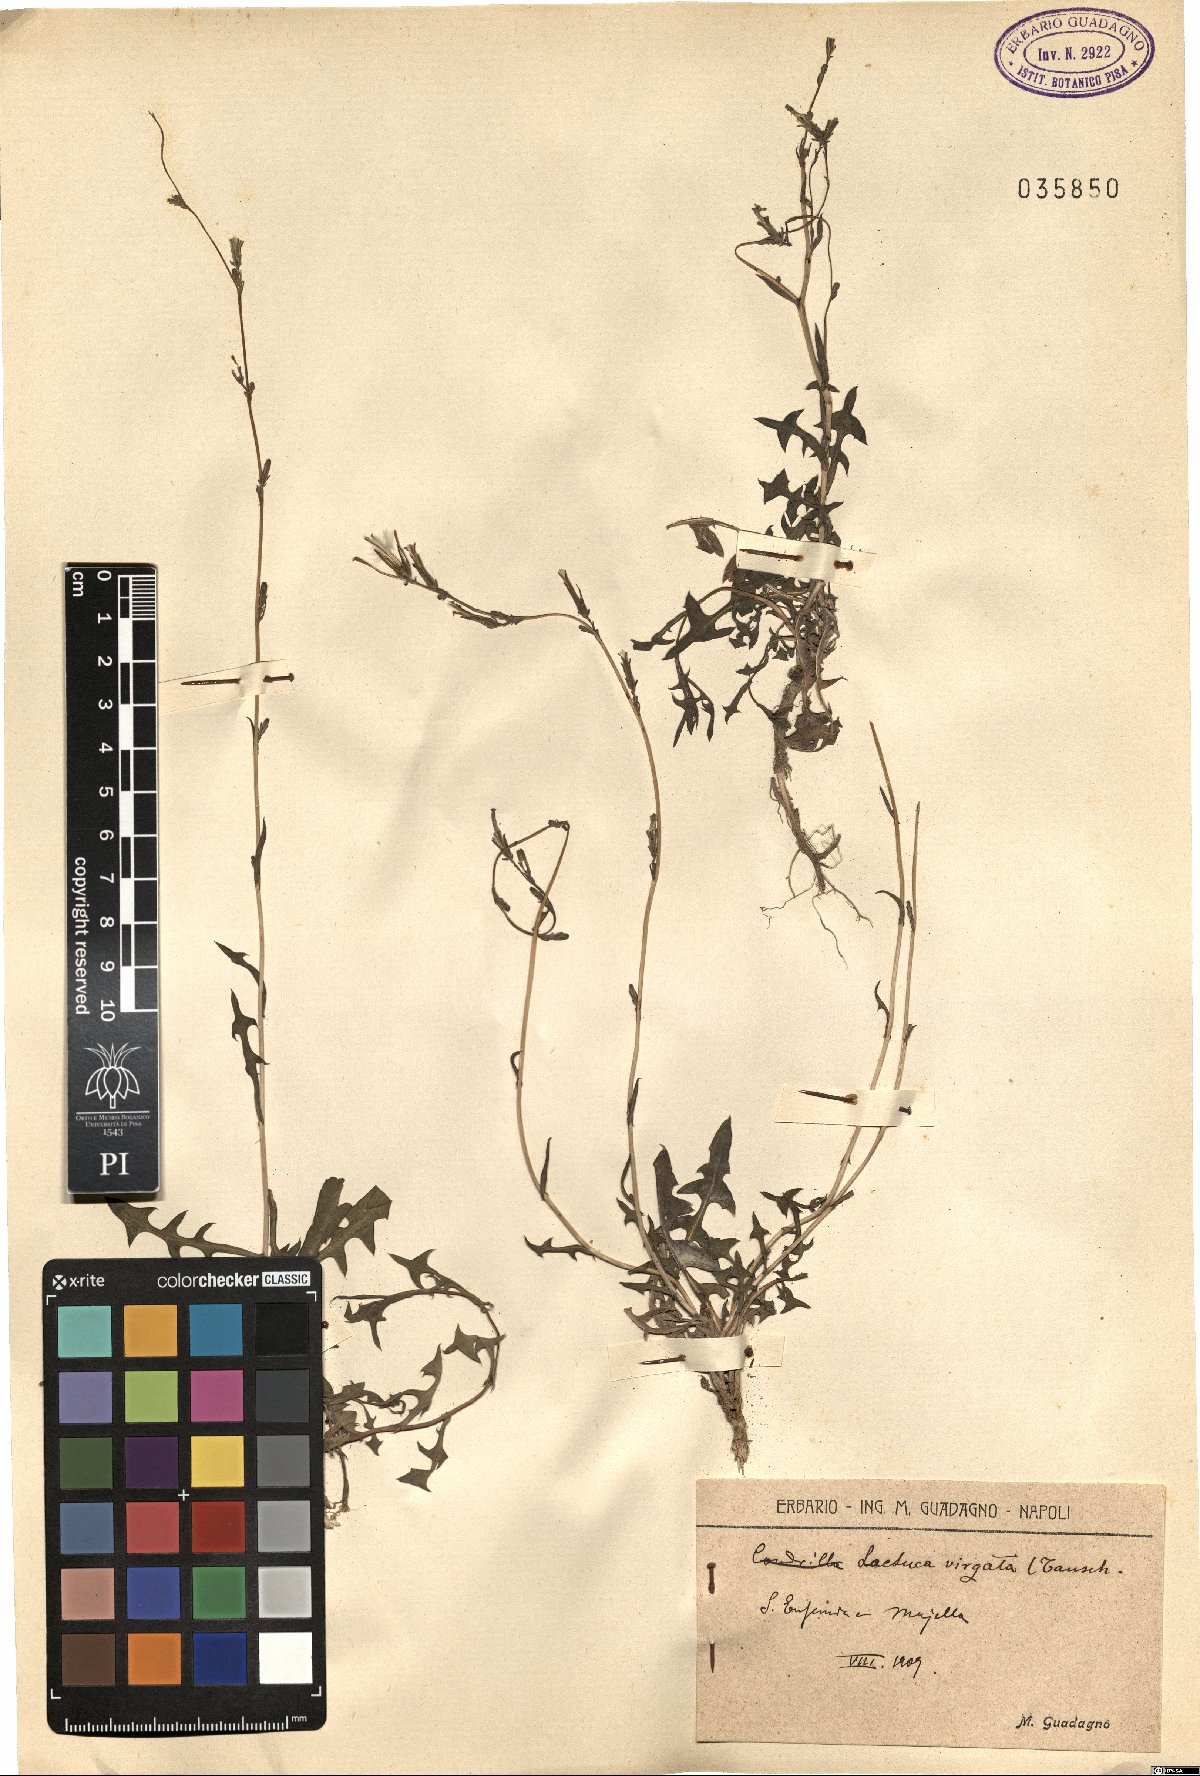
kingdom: Plantae
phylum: Tracheophyta
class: Magnoliopsida
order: Asterales
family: Asteraceae
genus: Launaea
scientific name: Launaea intybacea
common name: Achicoria azul
